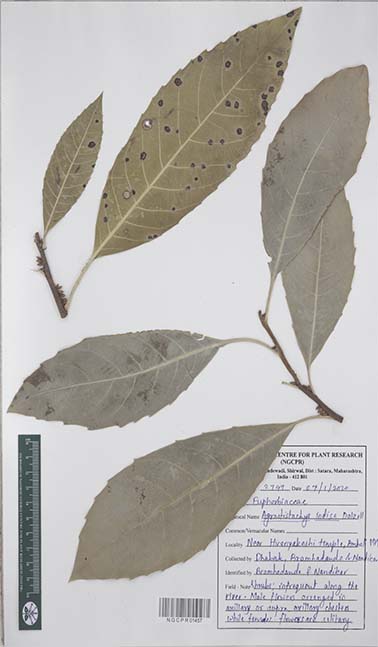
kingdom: Plantae
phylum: Tracheophyta
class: Magnoliopsida
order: Malpighiales
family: Euphorbiaceae
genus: Agrostistachys
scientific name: Agrostistachys indica
